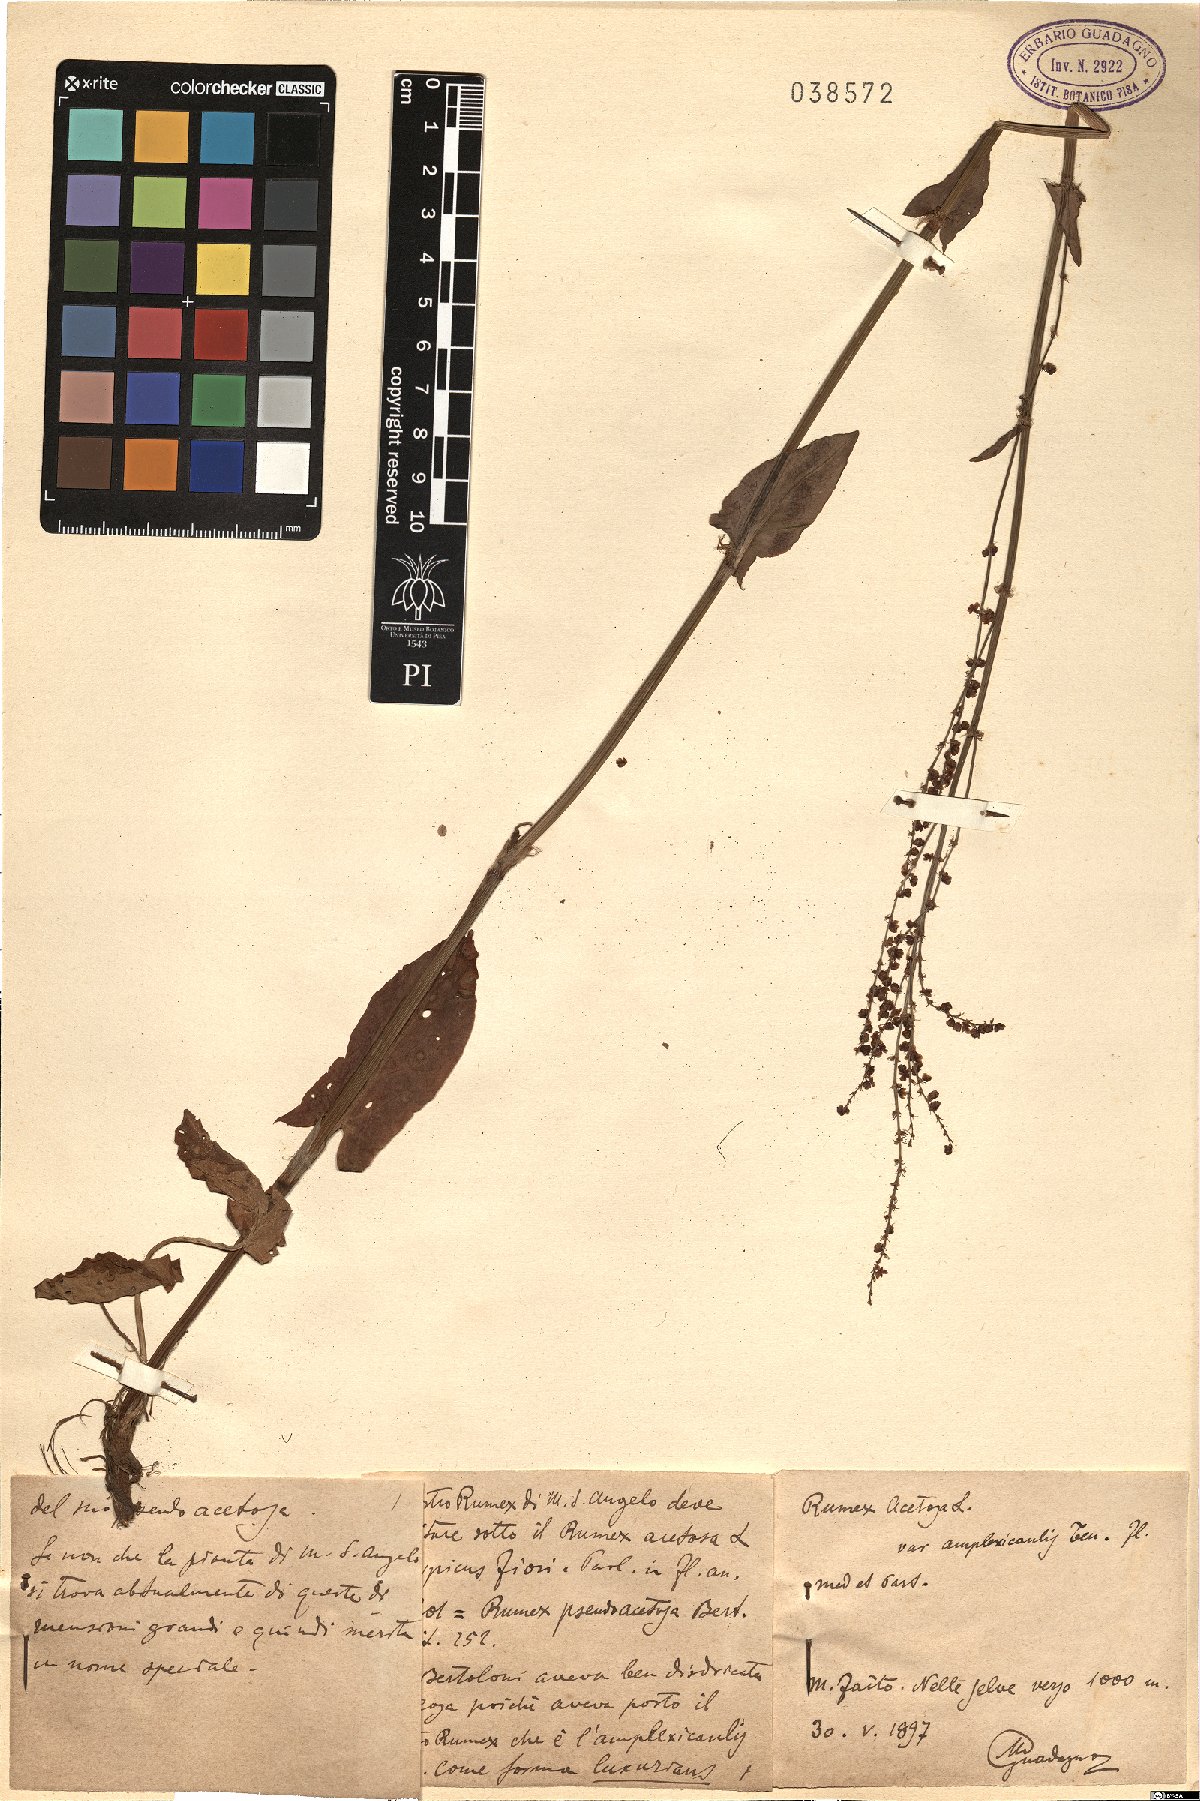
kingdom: Plantae
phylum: Tracheophyta
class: Magnoliopsida
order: Caryophyllales
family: Polygonaceae
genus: Rumex
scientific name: Rumex arifolius
